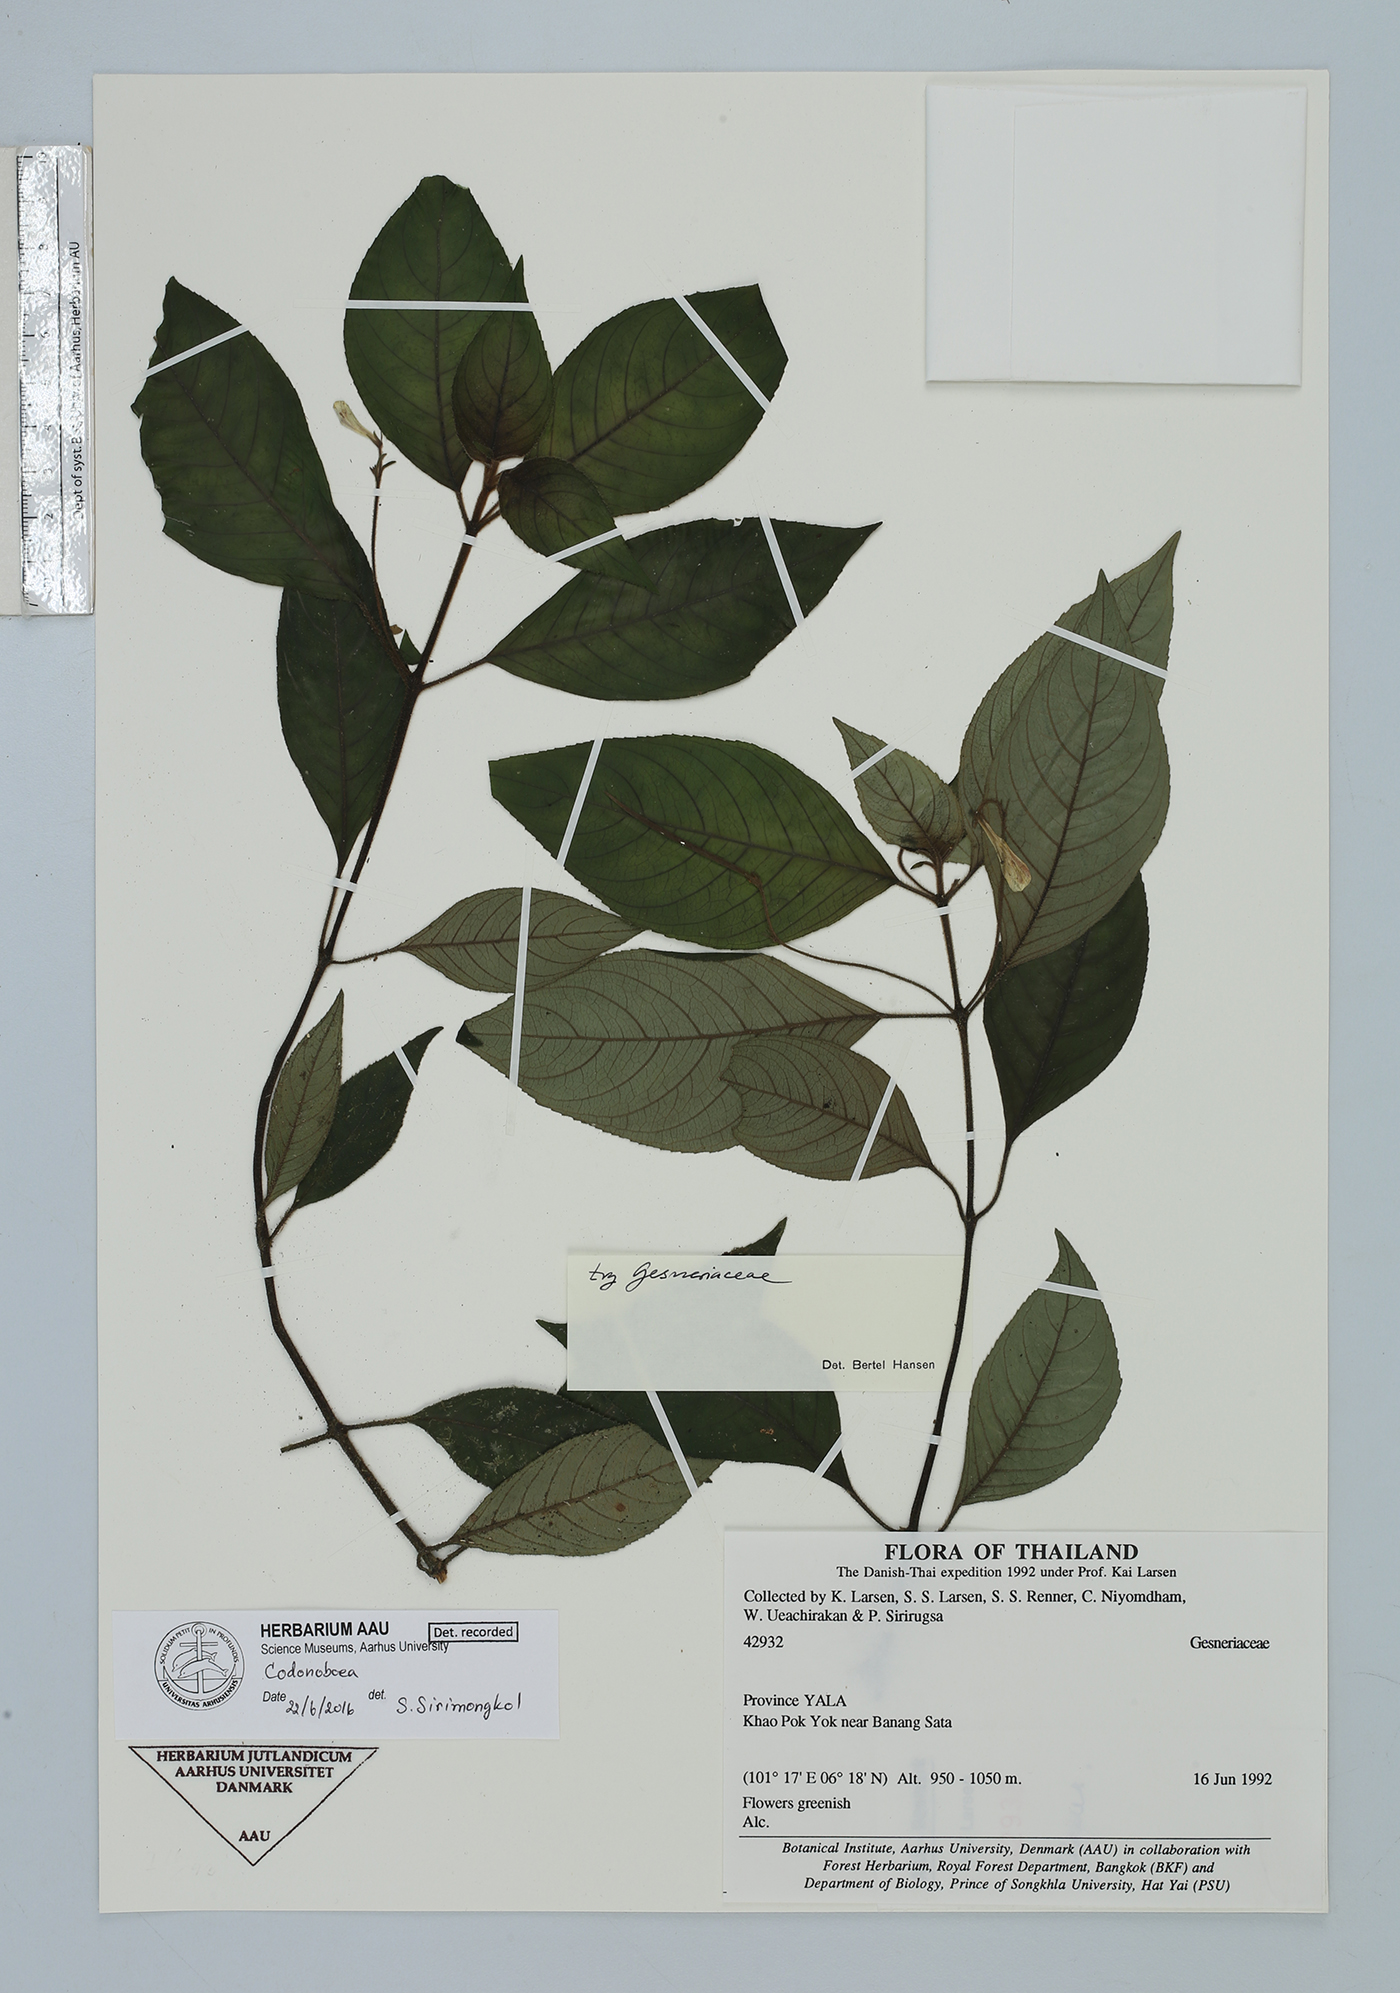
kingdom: Plantae
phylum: Tracheophyta
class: Magnoliopsida
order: Lamiales
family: Gesneriaceae
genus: Codonoboea
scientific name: Codonoboea
